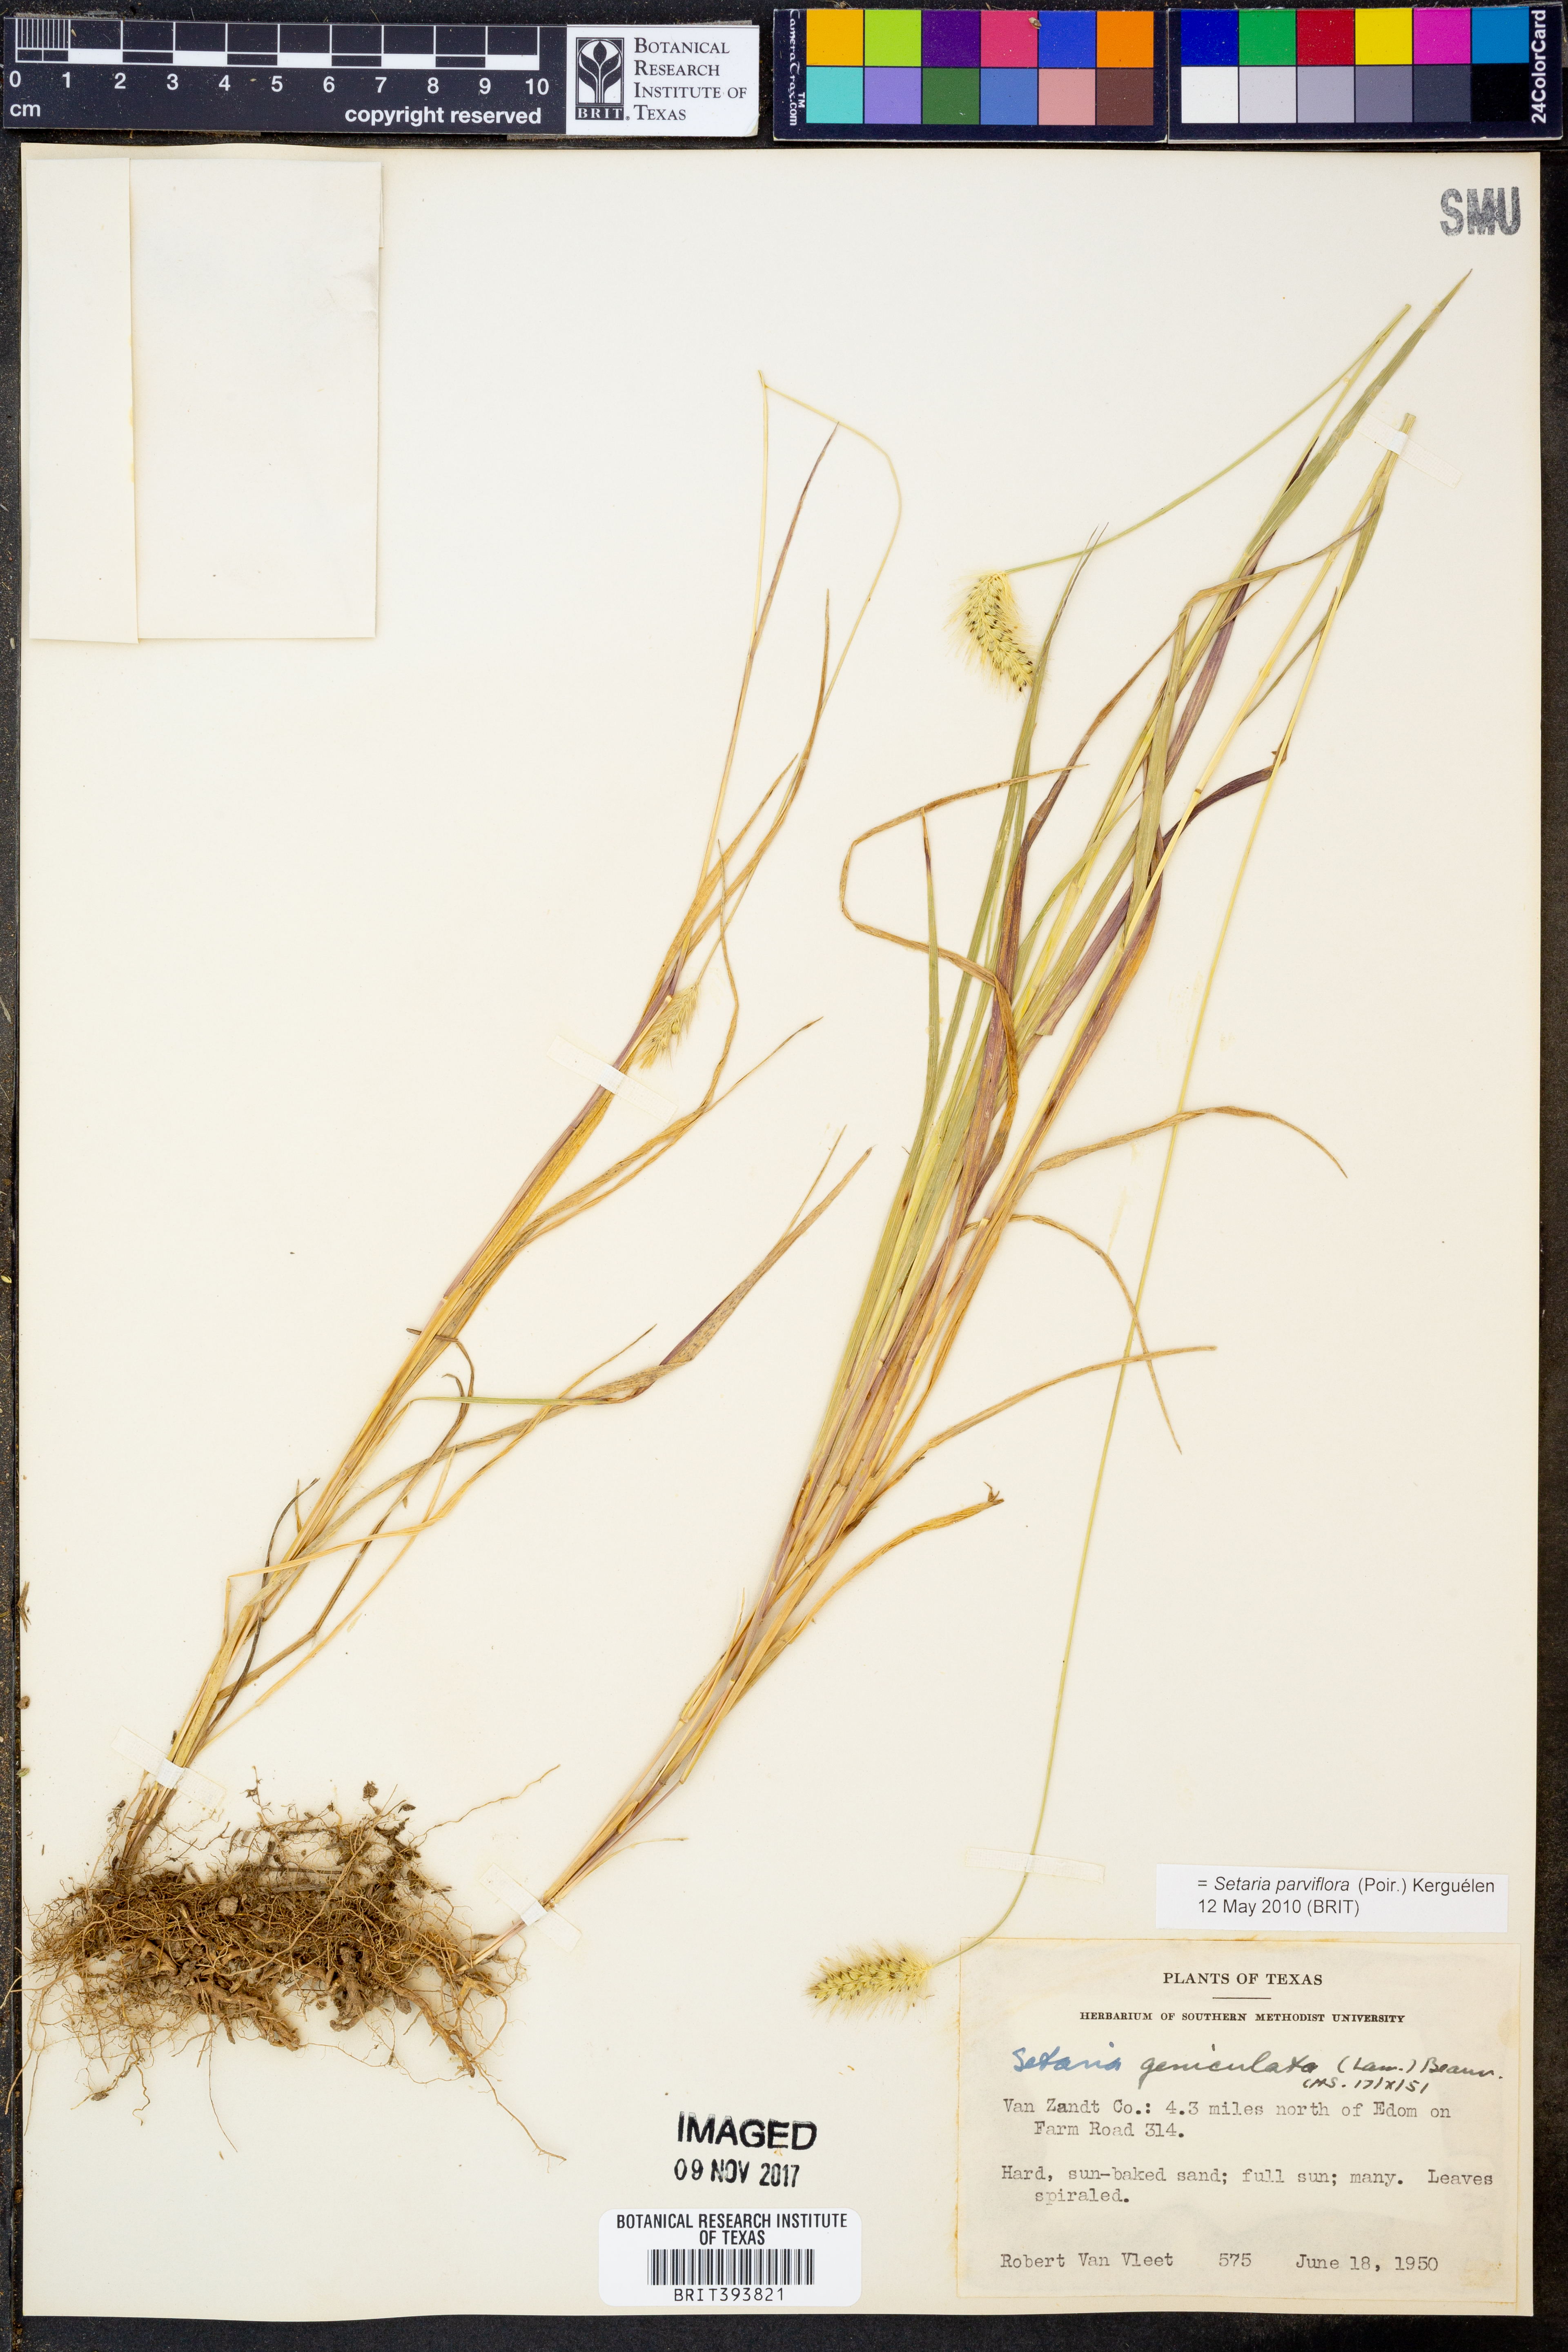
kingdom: Plantae
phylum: Tracheophyta
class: Liliopsida
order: Poales
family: Poaceae
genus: Setaria
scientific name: Setaria parviflora
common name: Knotroot bristle-grass
